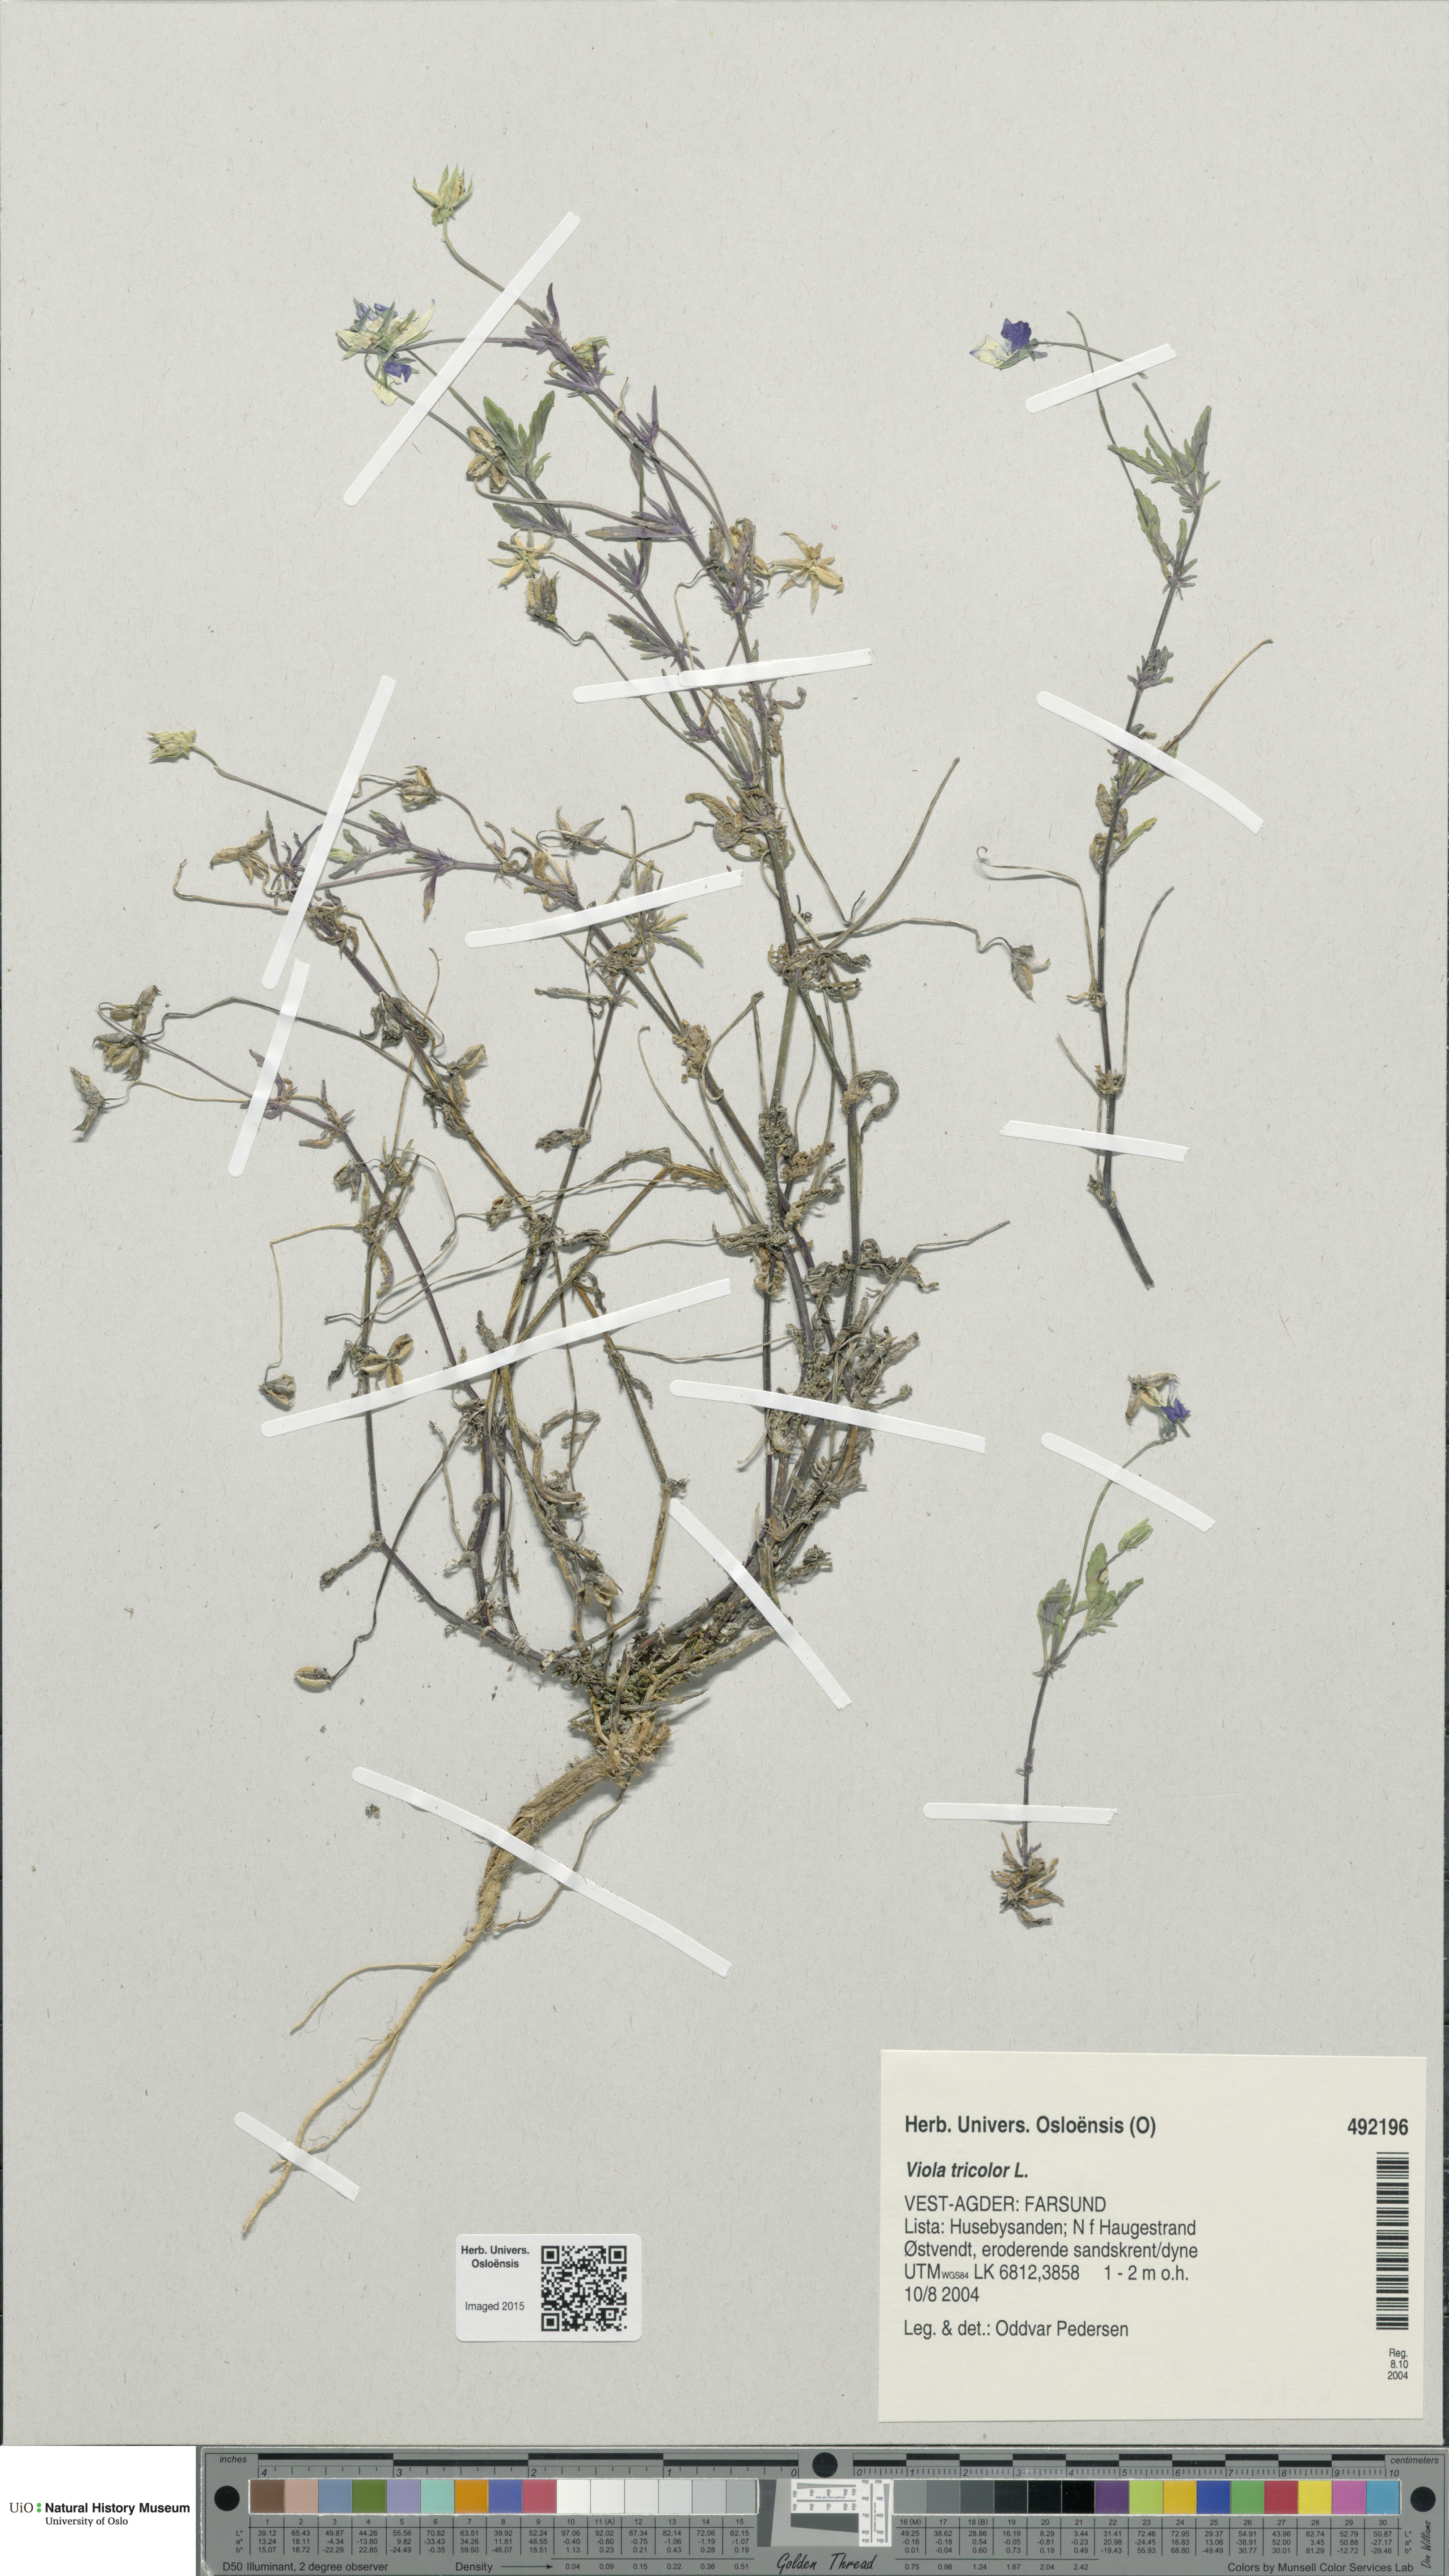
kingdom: Plantae
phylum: Tracheophyta
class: Magnoliopsida
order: Malpighiales
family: Violaceae
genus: Viola
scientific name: Viola tricolor
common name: Pansy
